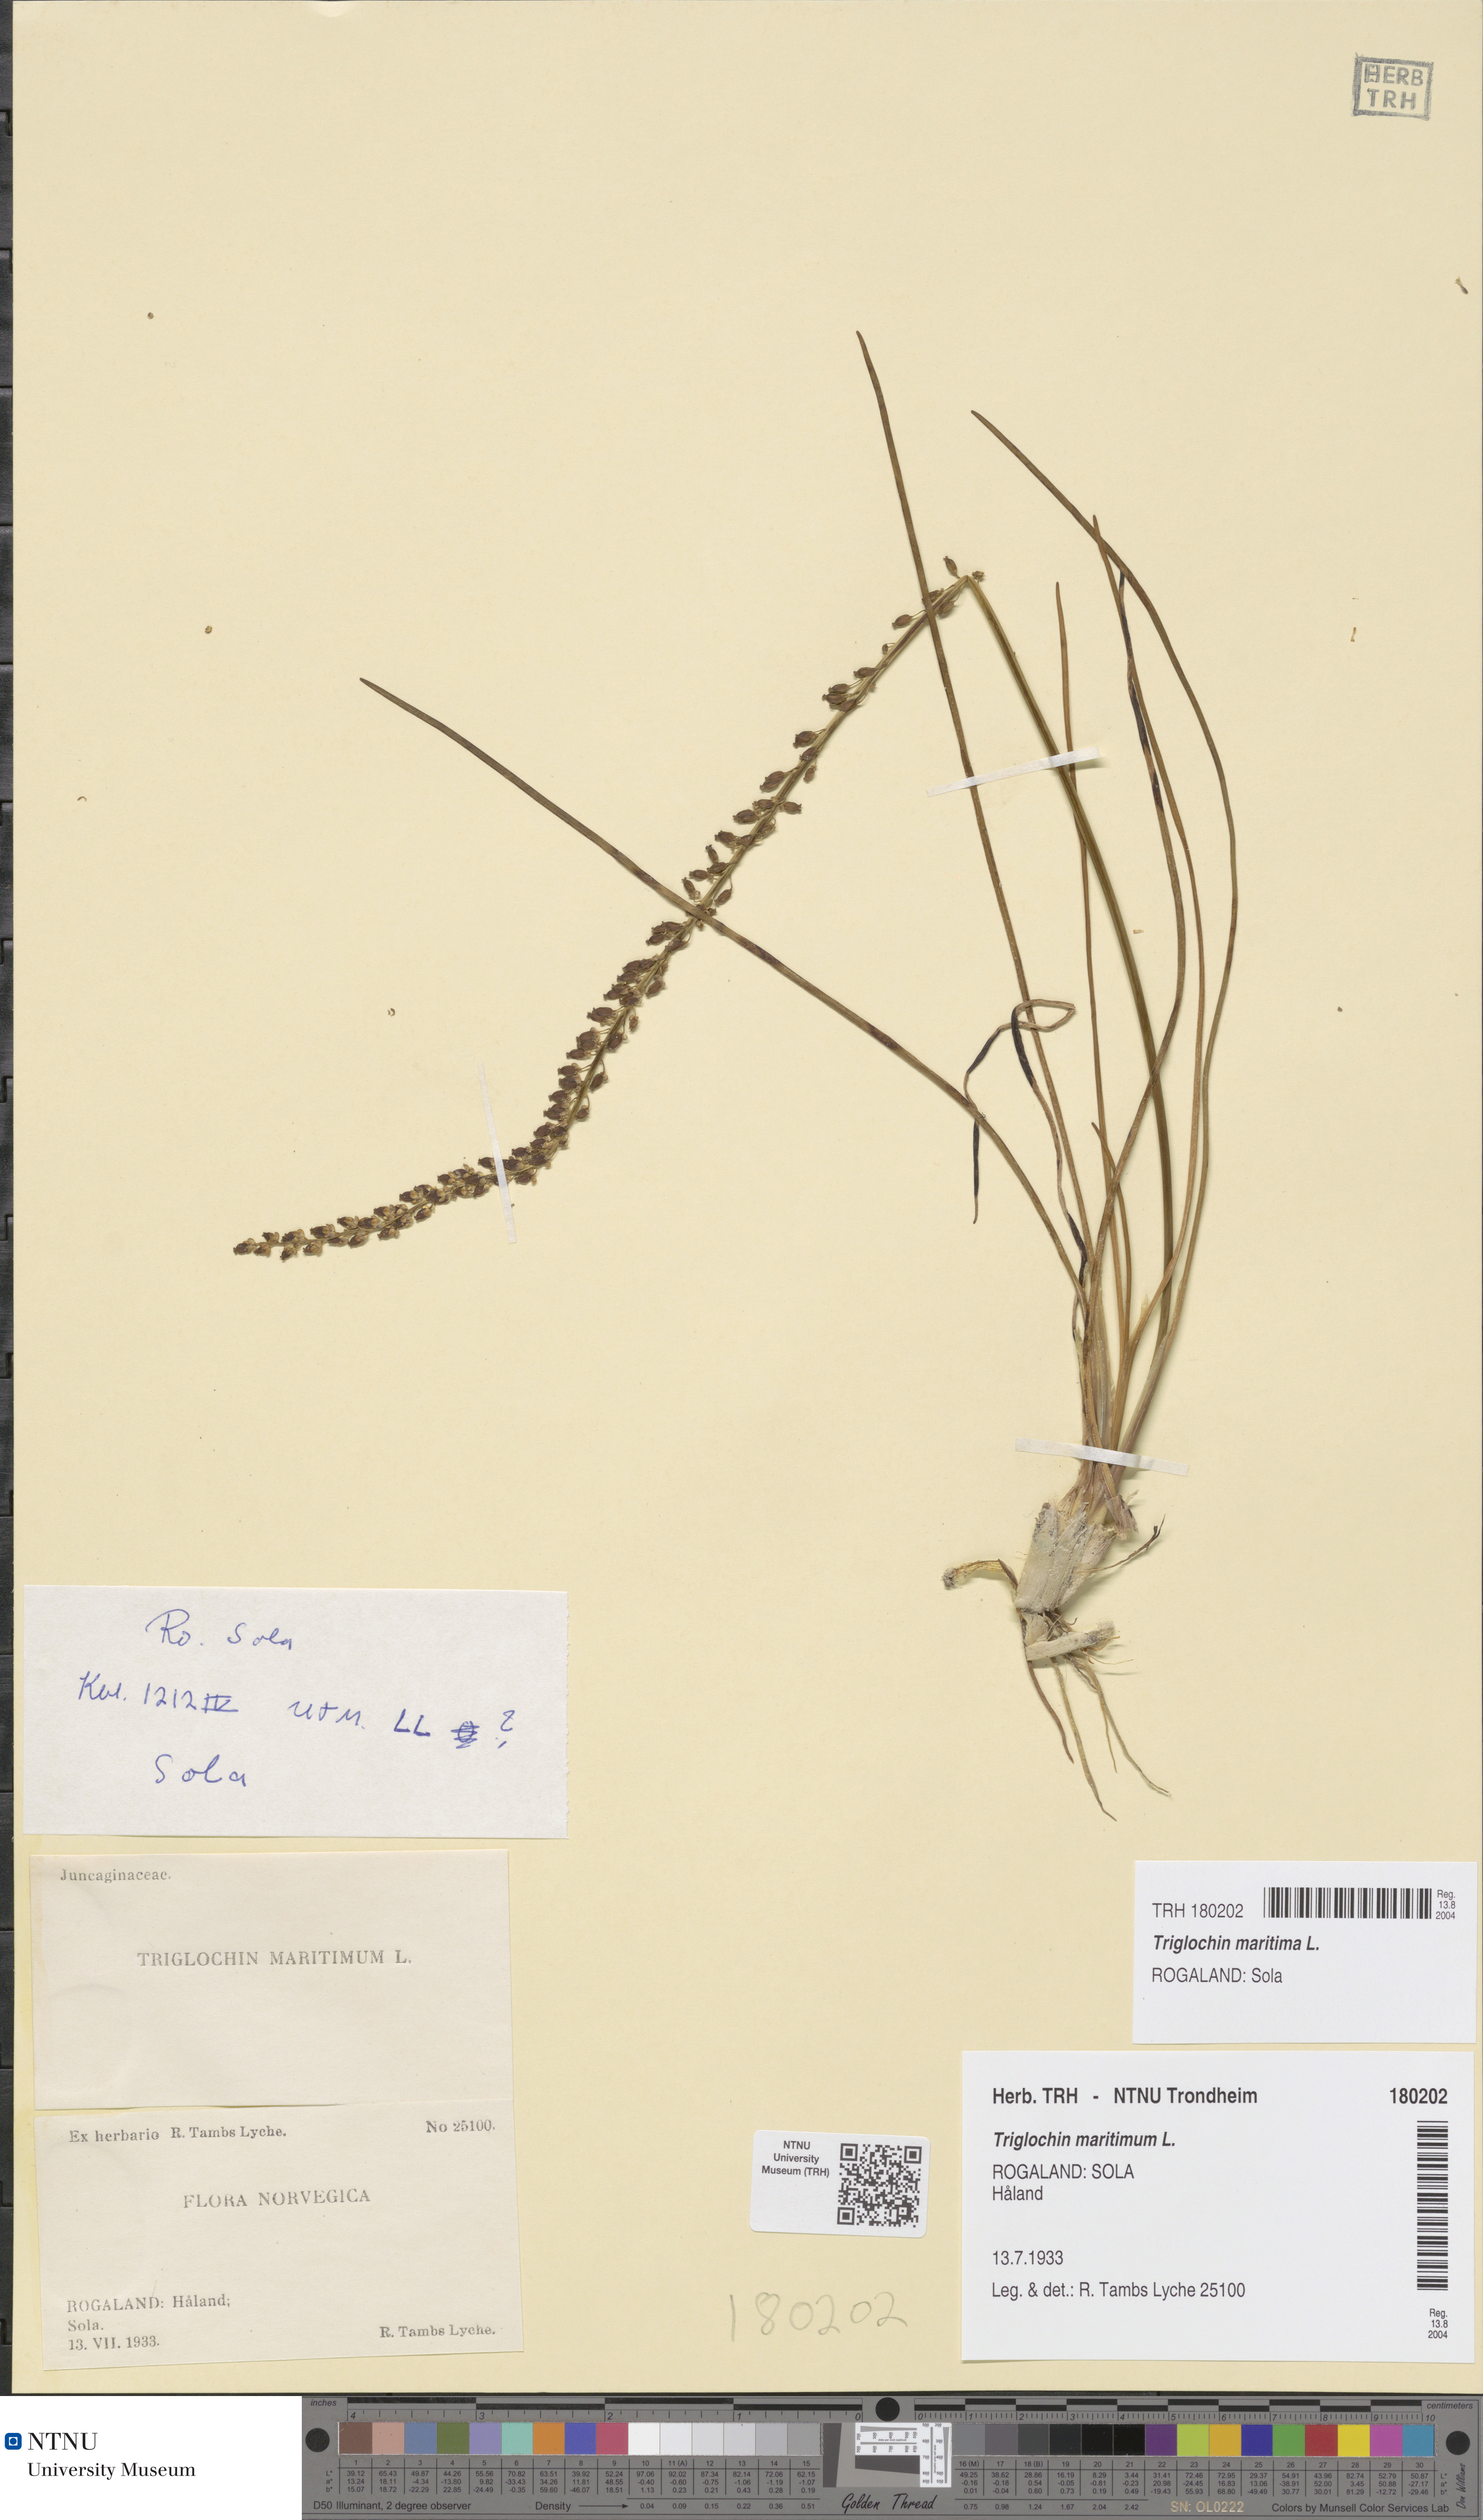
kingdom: Plantae
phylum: Tracheophyta
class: Liliopsida
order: Alismatales
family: Juncaginaceae
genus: Triglochin
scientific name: Triglochin maritima
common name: Sea arrowgrass
